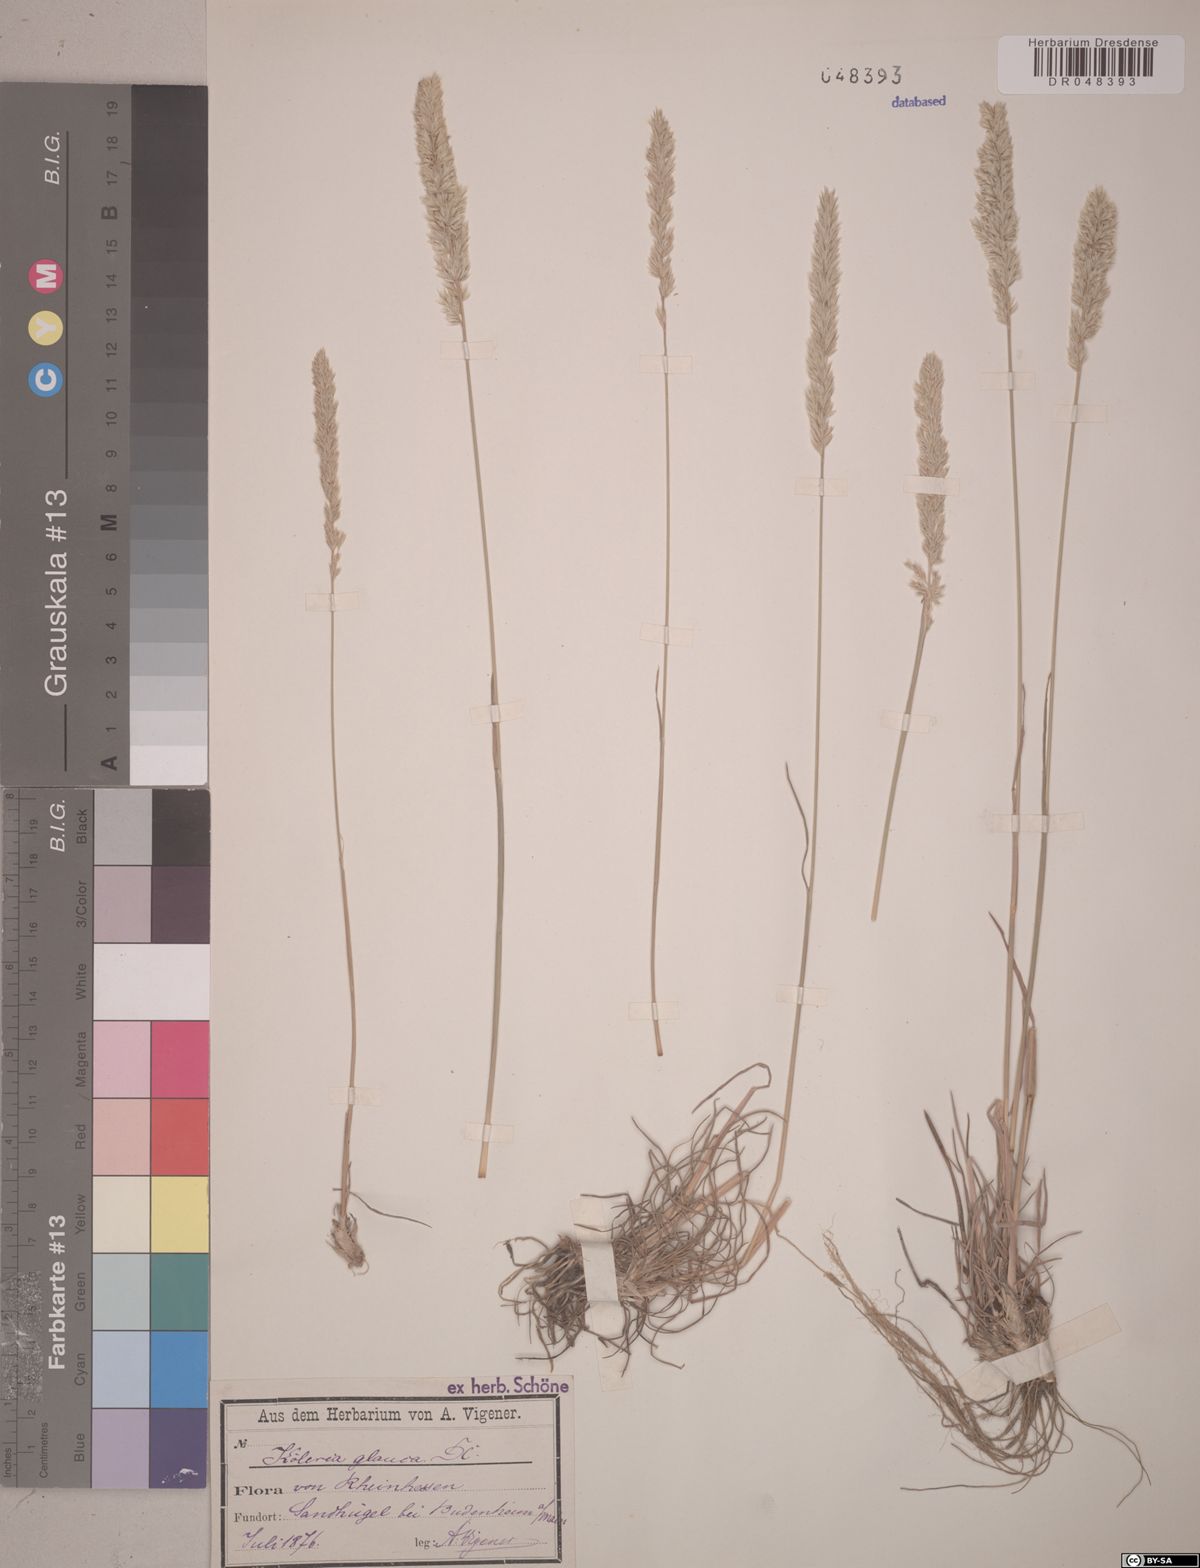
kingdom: Plantae
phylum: Tracheophyta
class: Liliopsida
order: Poales
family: Poaceae
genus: Koeleria
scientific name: Koeleria glauca
